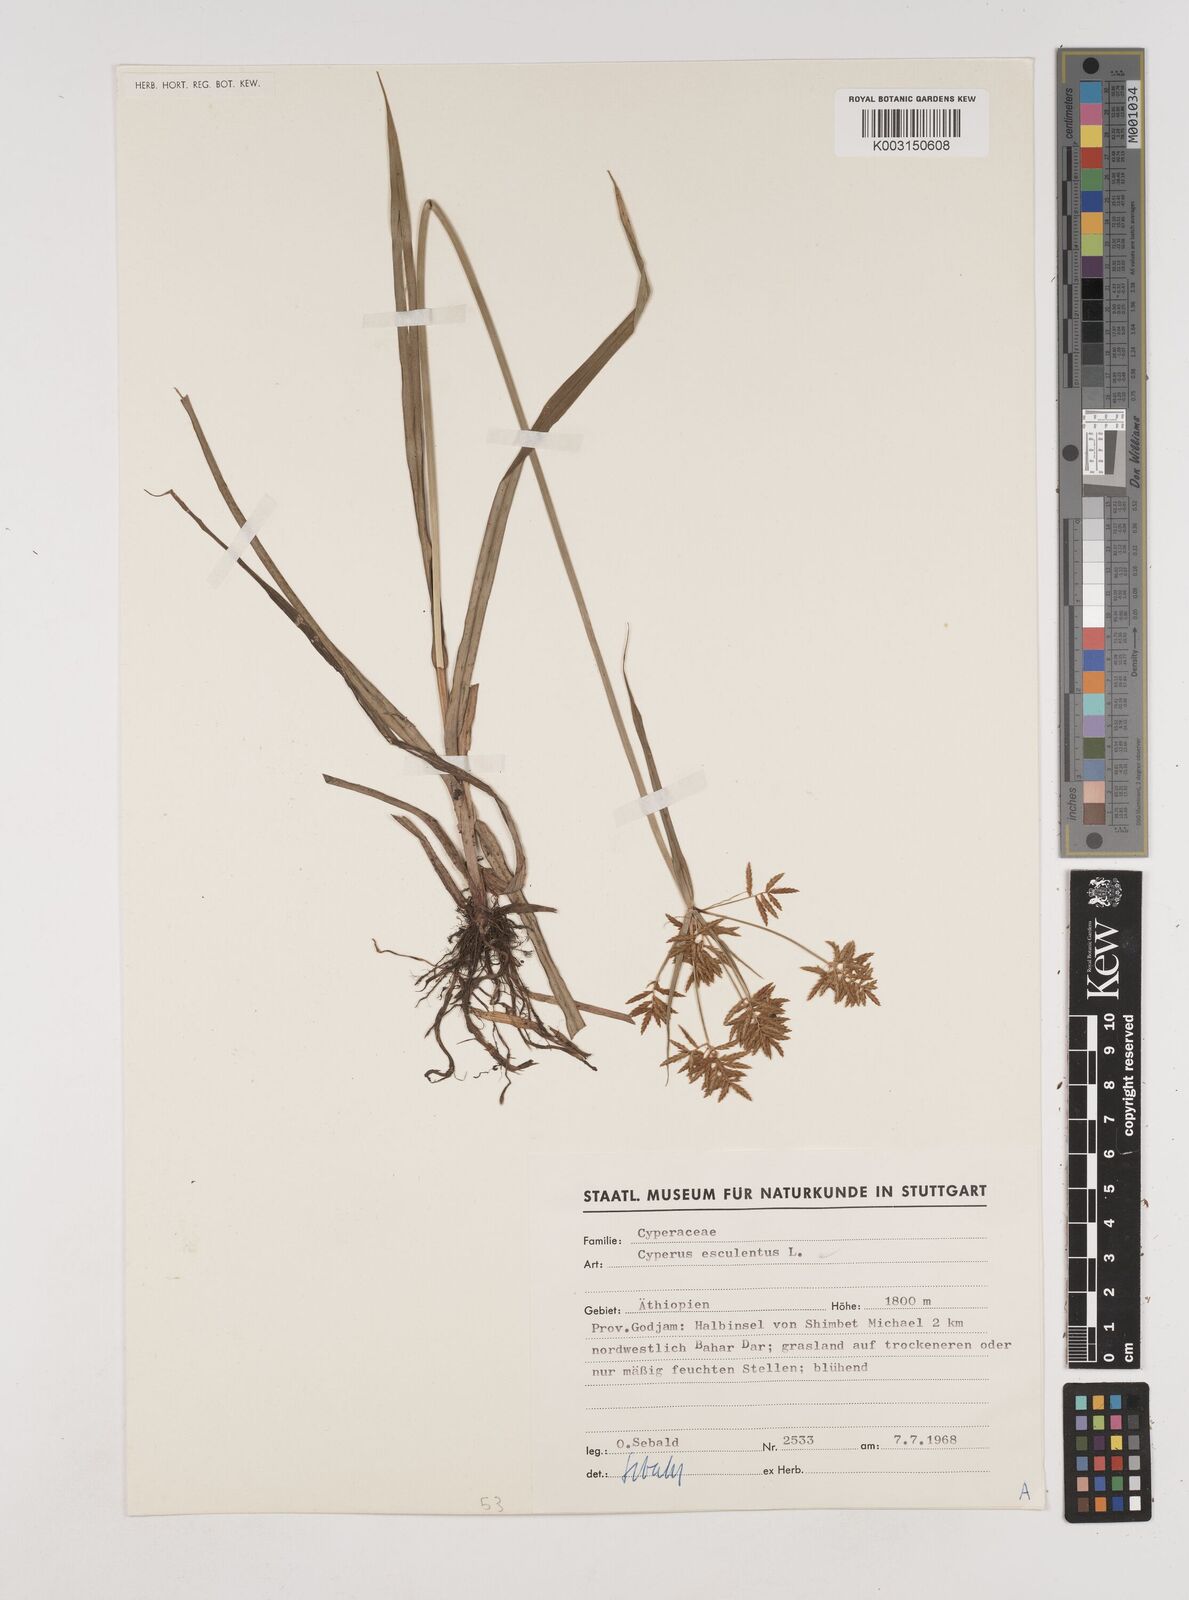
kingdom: Plantae
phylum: Tracheophyta
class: Liliopsida
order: Poales
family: Cyperaceae
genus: Cyperus
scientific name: Cyperus esculentus
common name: Yellow nutsedge
